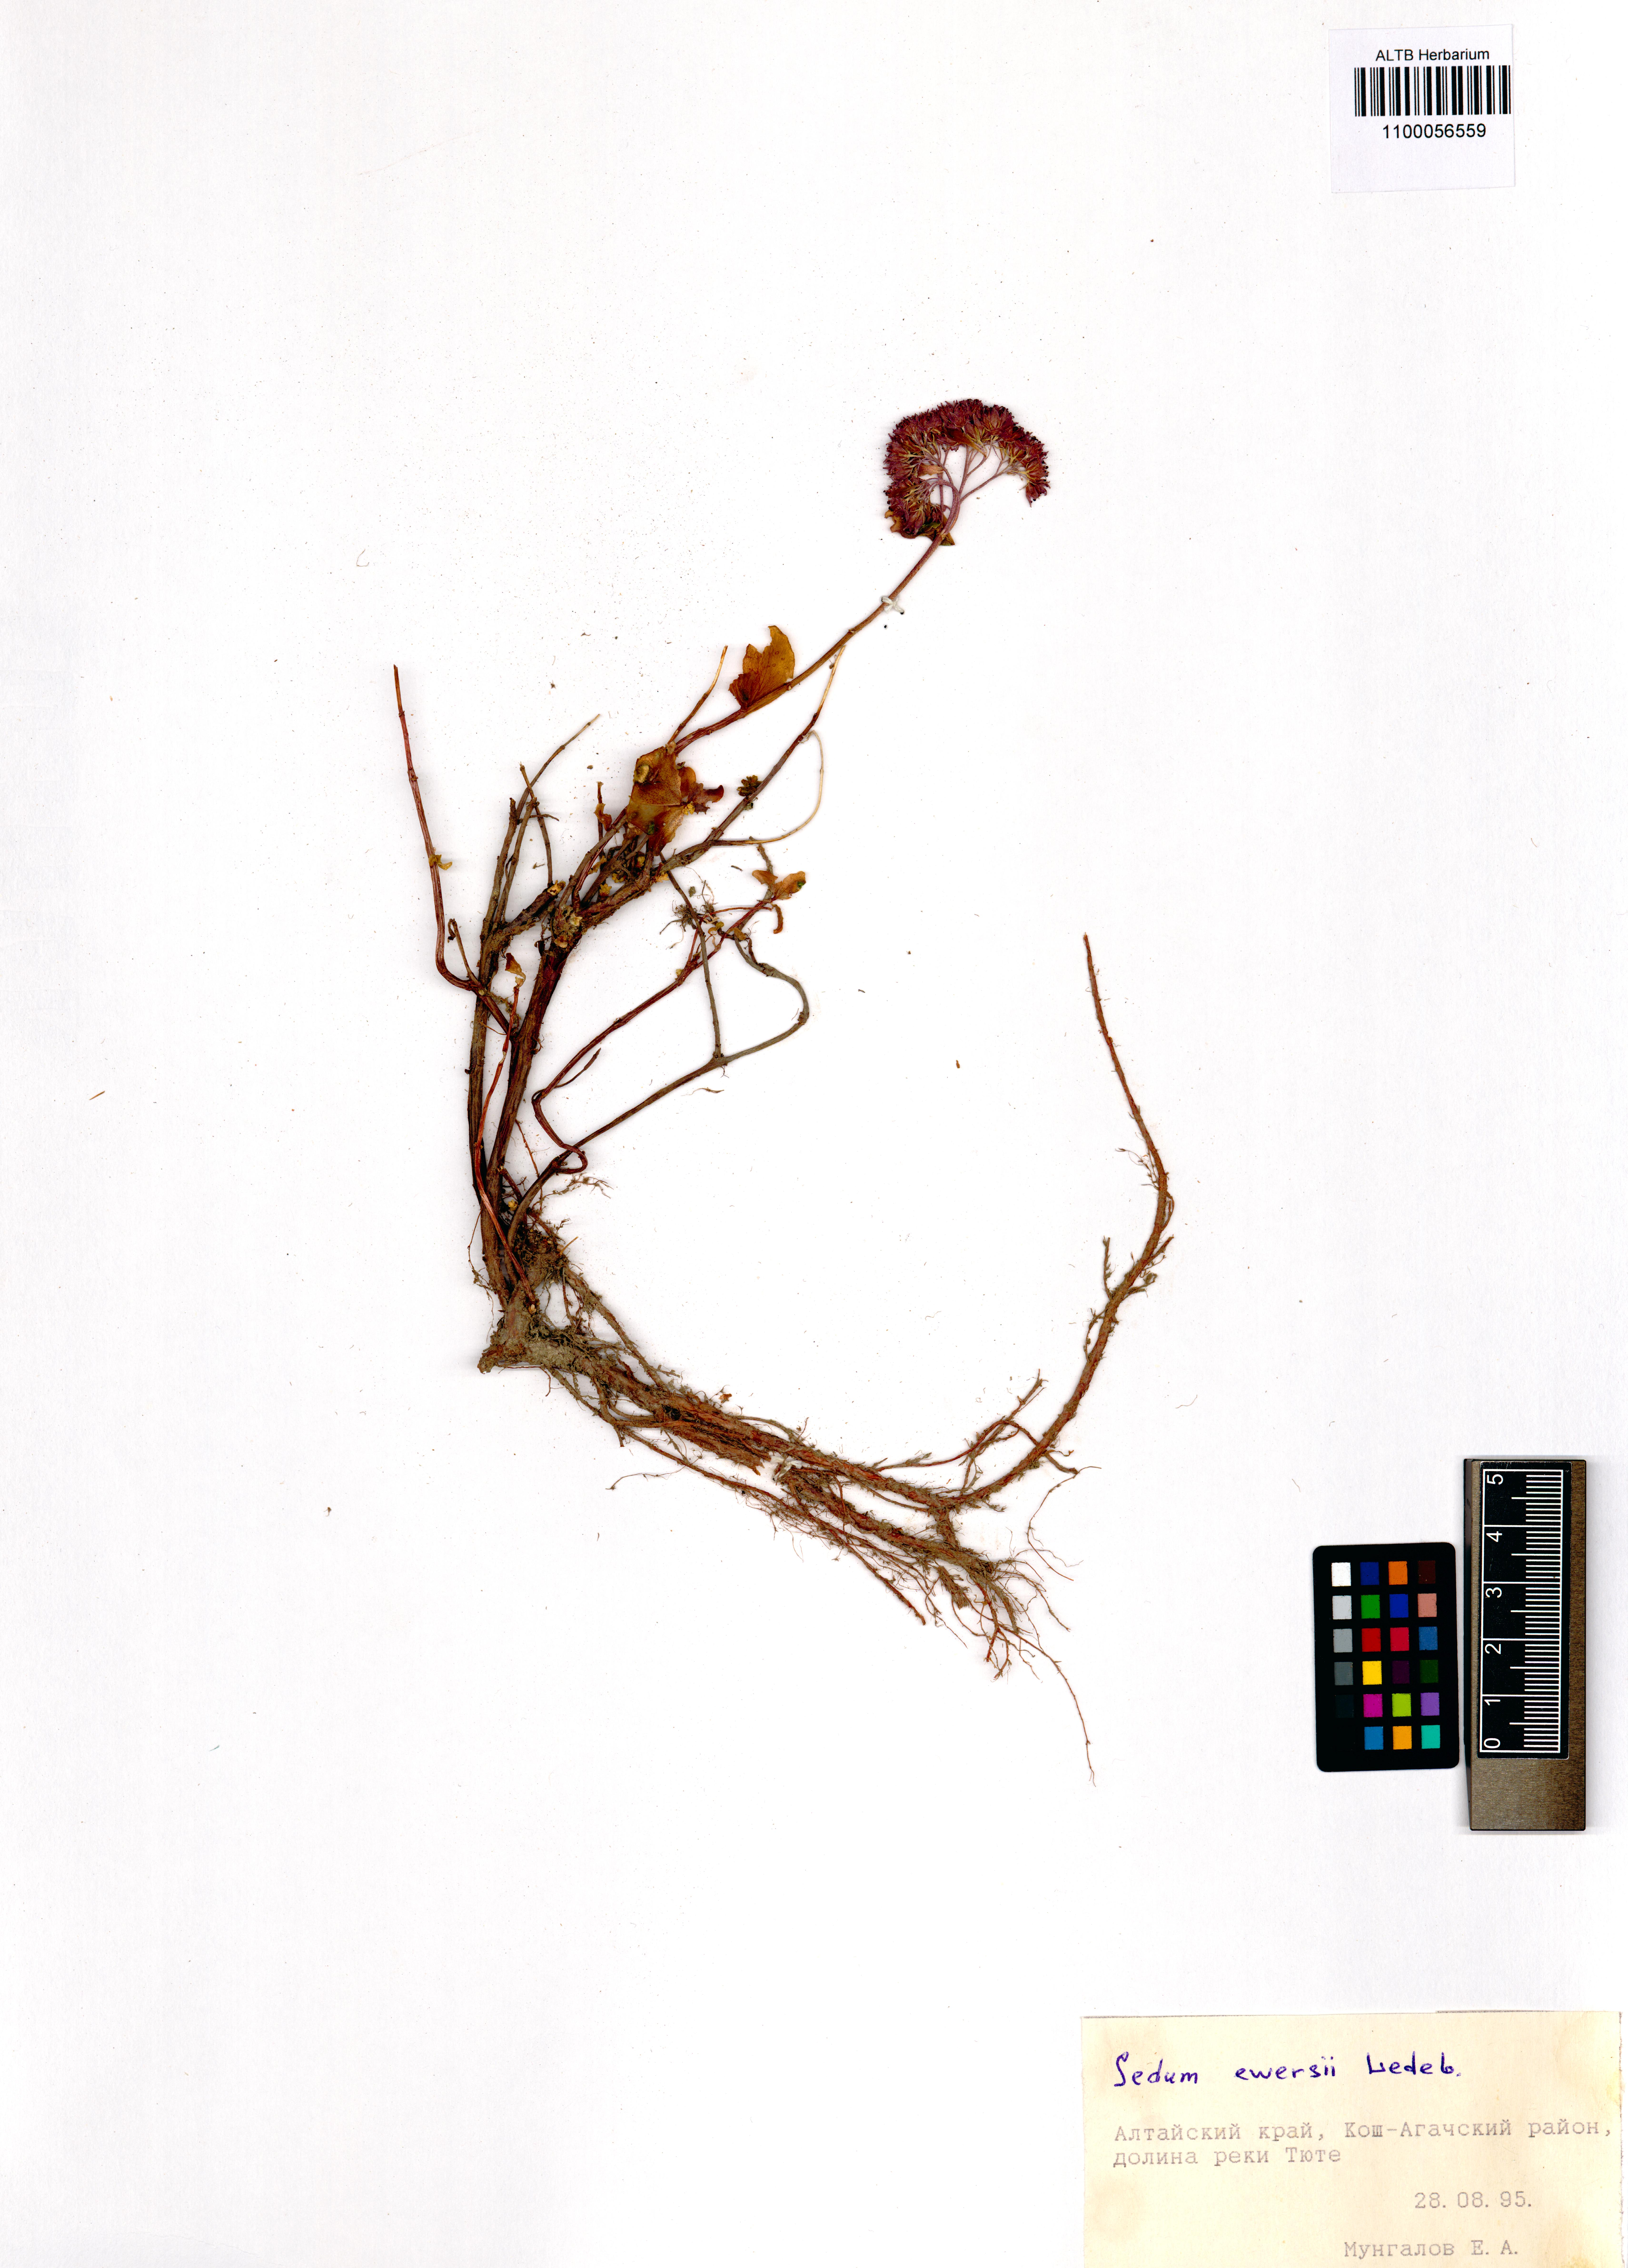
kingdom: Plantae
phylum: Tracheophyta
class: Magnoliopsida
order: Saxifragales
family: Crassulaceae
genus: Hylotelephium
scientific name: Hylotelephium ewersii
